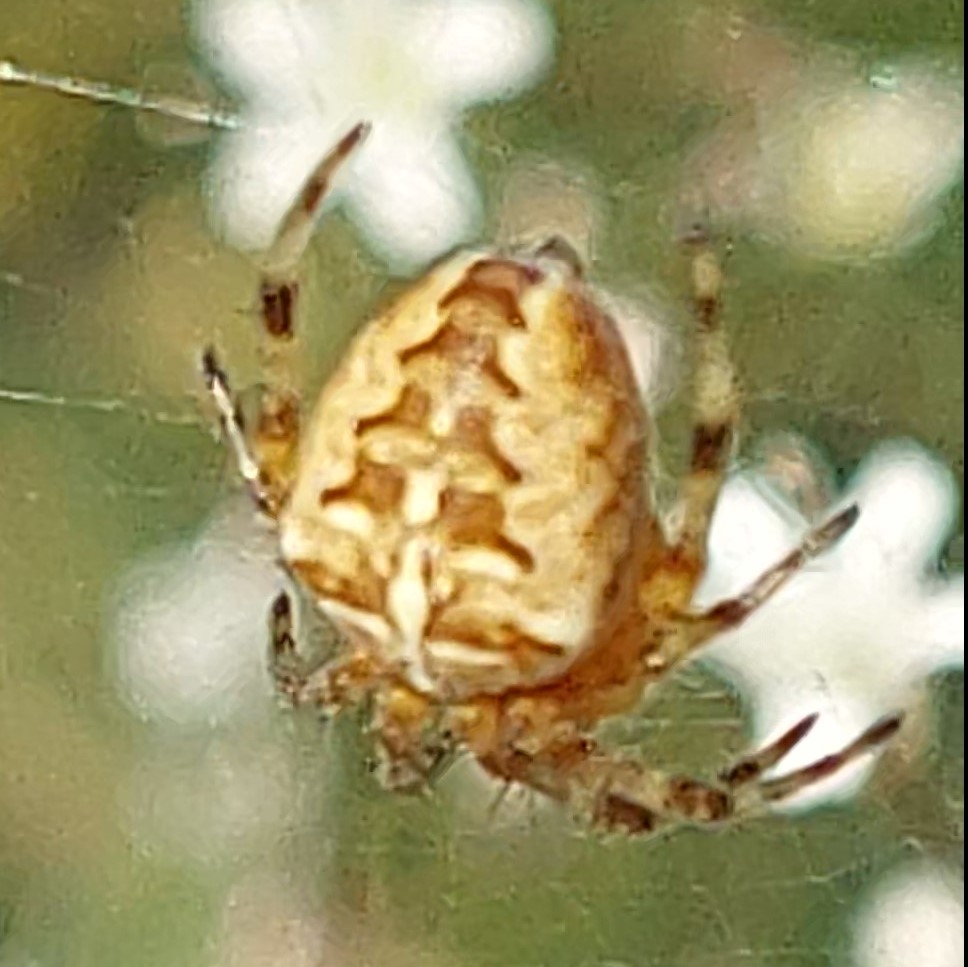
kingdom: Animalia
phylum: Arthropoda
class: Arachnida
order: Araneae
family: Araneidae
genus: Araneus
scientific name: Araneus diadematus
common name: Korsedderkop
